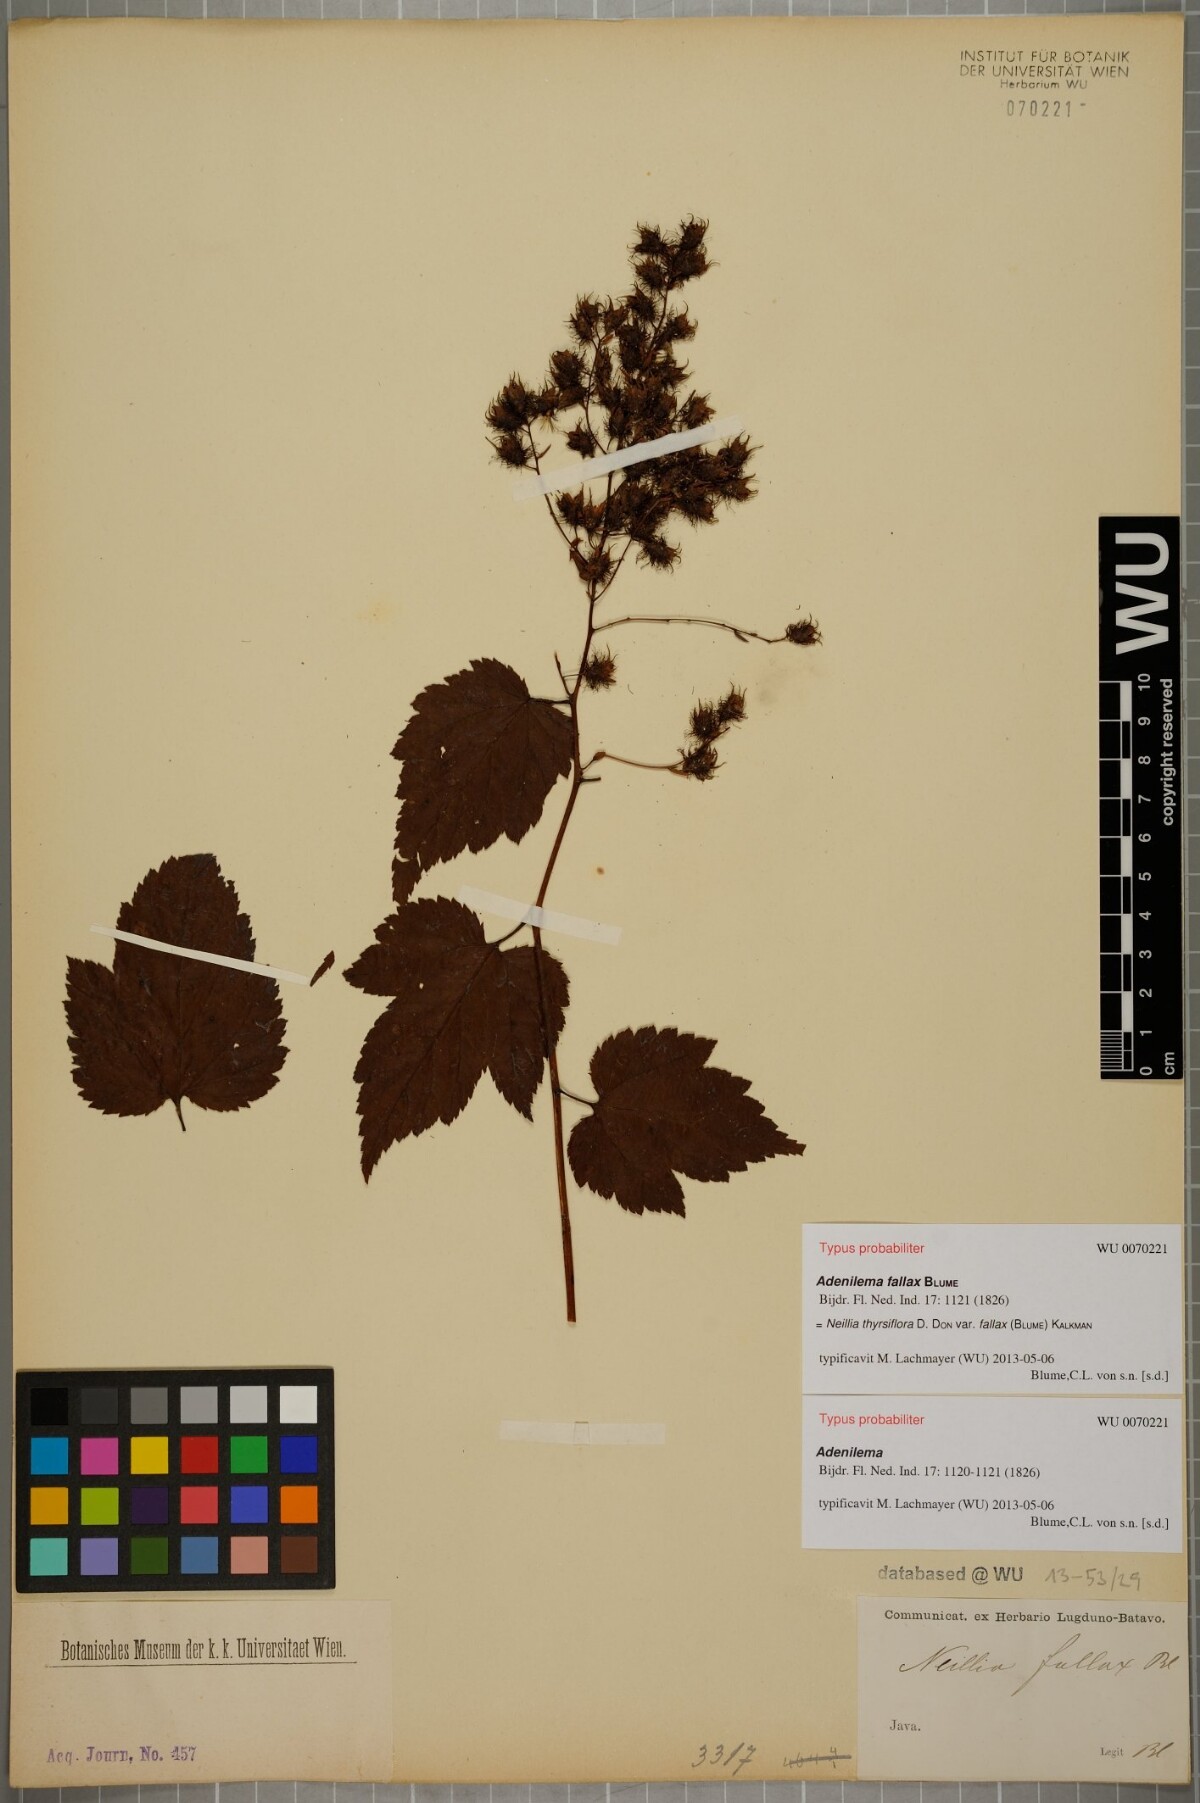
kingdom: Plantae
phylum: Tracheophyta
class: Magnoliopsida
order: Rosales
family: Rosaceae
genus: Neillia
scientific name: Neillia thyrsiflora
